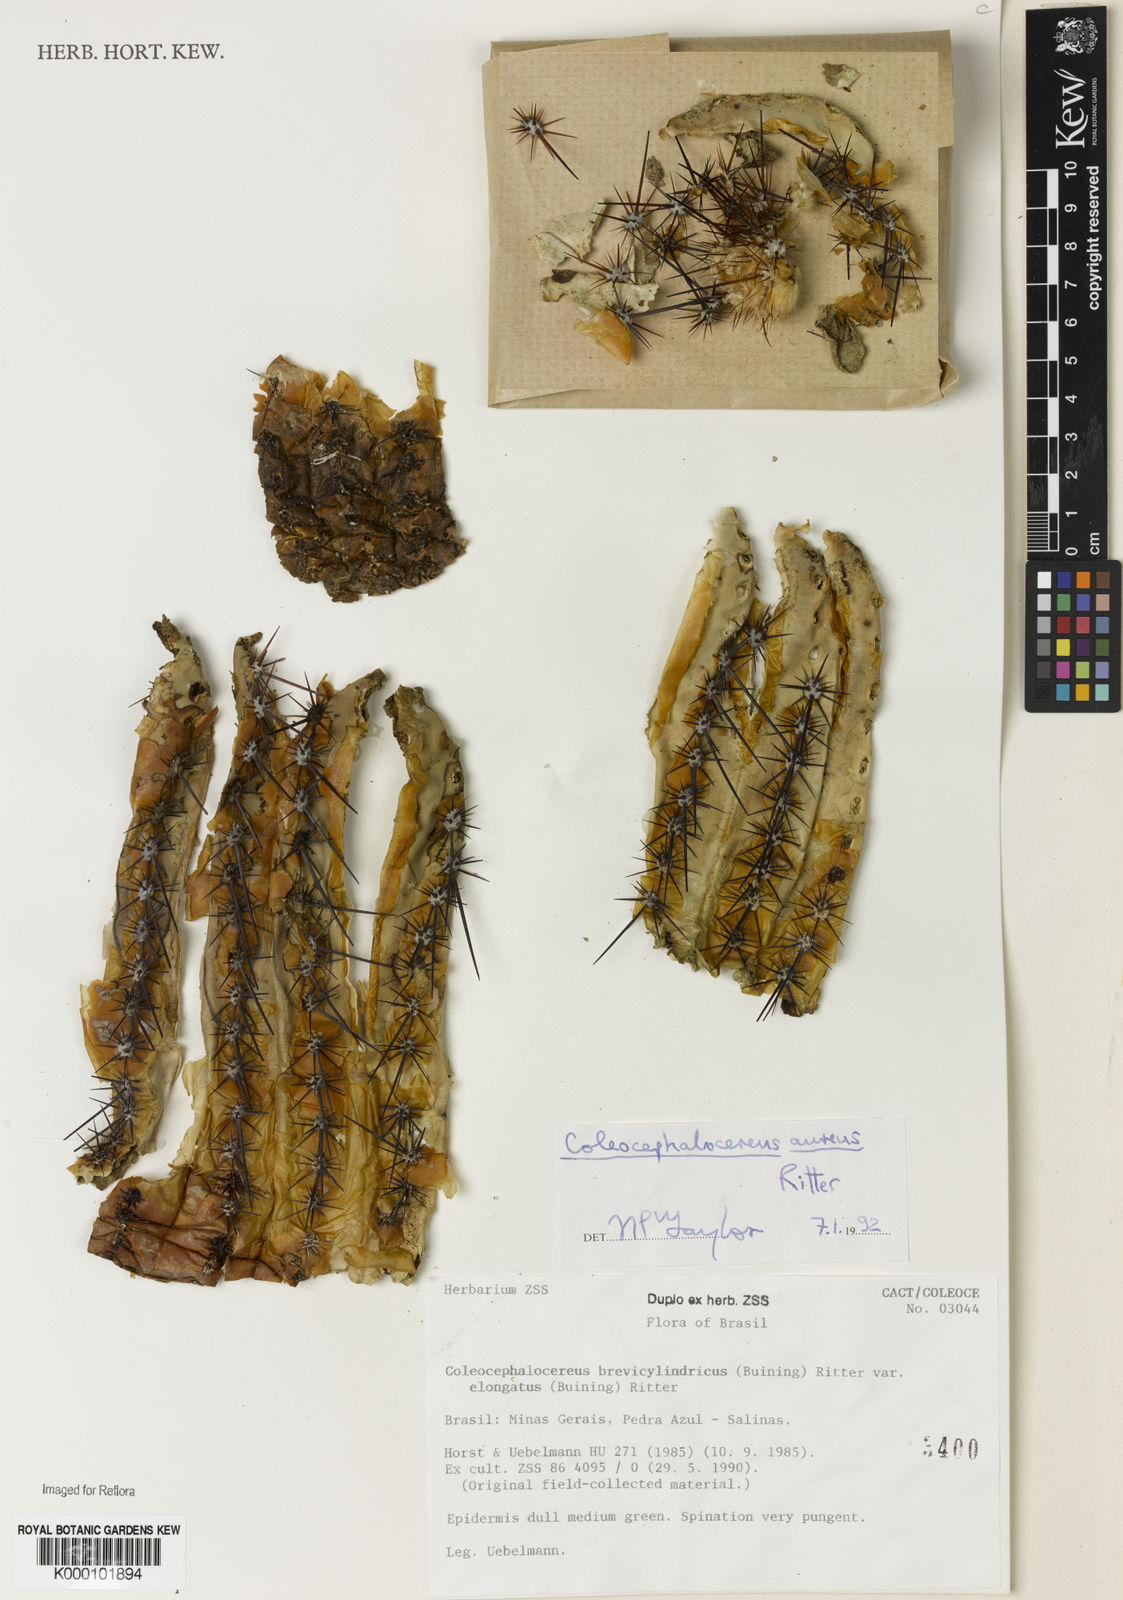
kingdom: Plantae
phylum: Tracheophyta
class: Magnoliopsida
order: Caryophyllales
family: Cactaceae
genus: Coleocephalocereus
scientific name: Coleocephalocereus aureus
